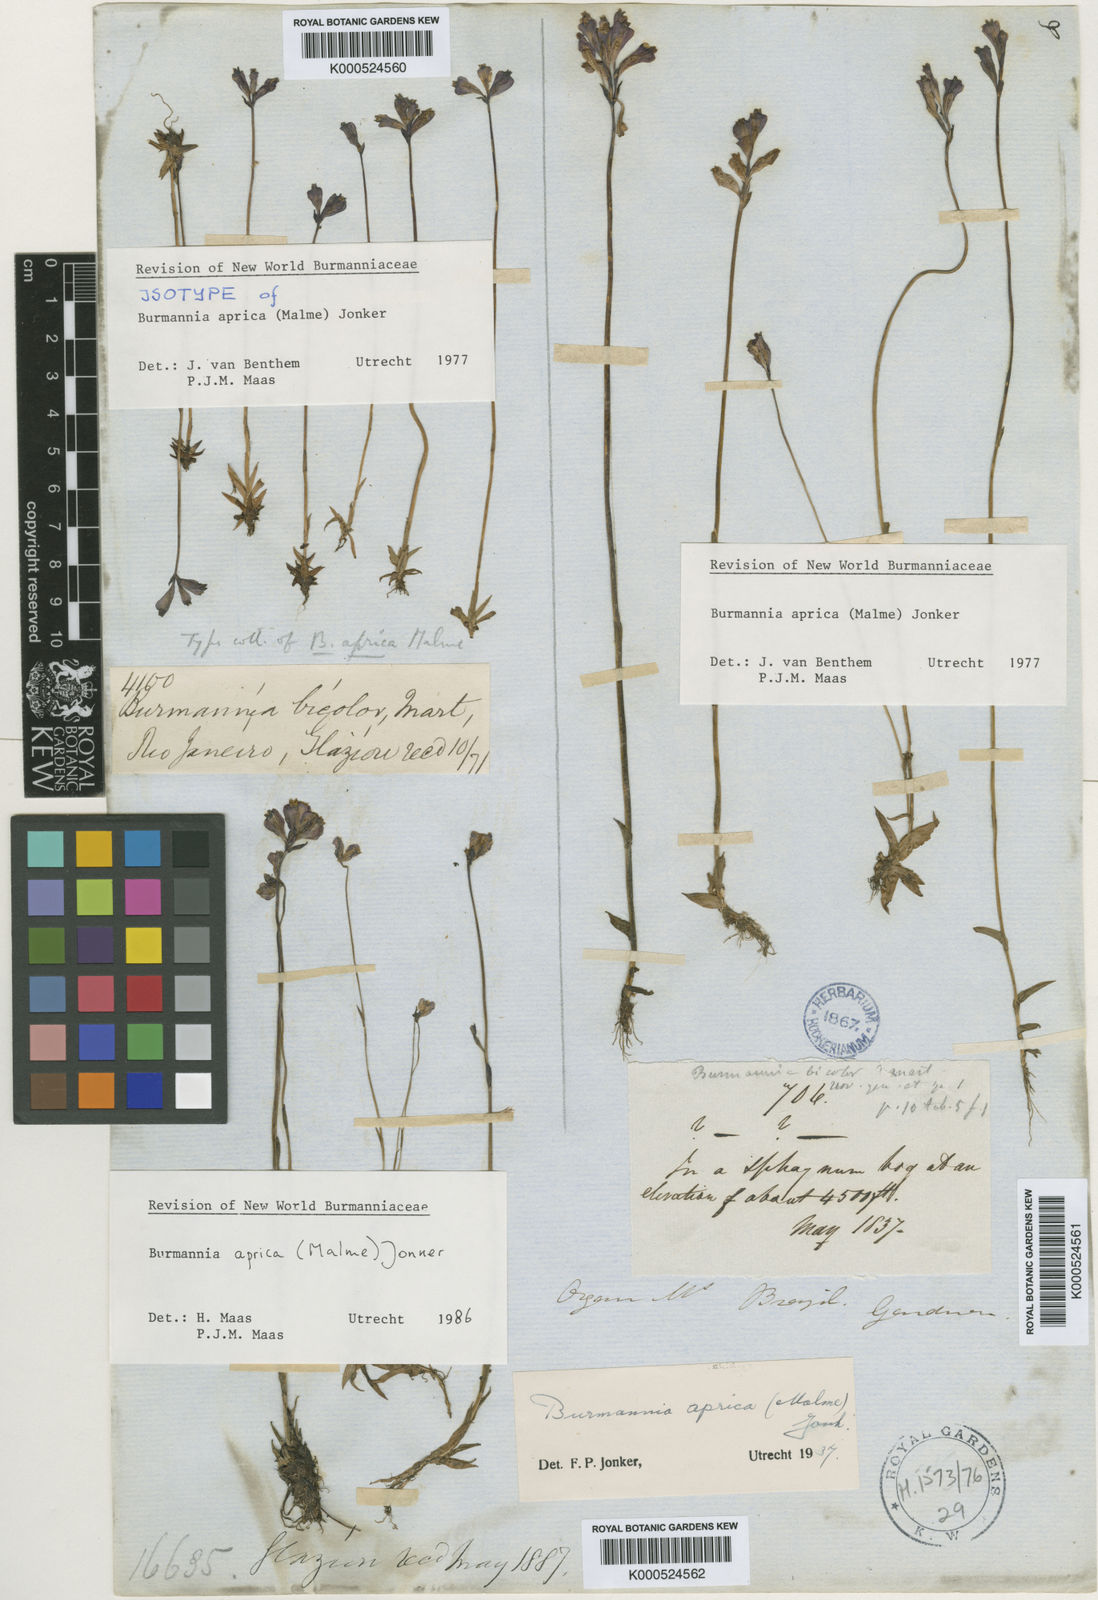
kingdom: Plantae
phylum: Tracheophyta
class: Liliopsida
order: Dioscoreales
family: Burmanniaceae
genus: Burmannia
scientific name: Burmannia aprica
